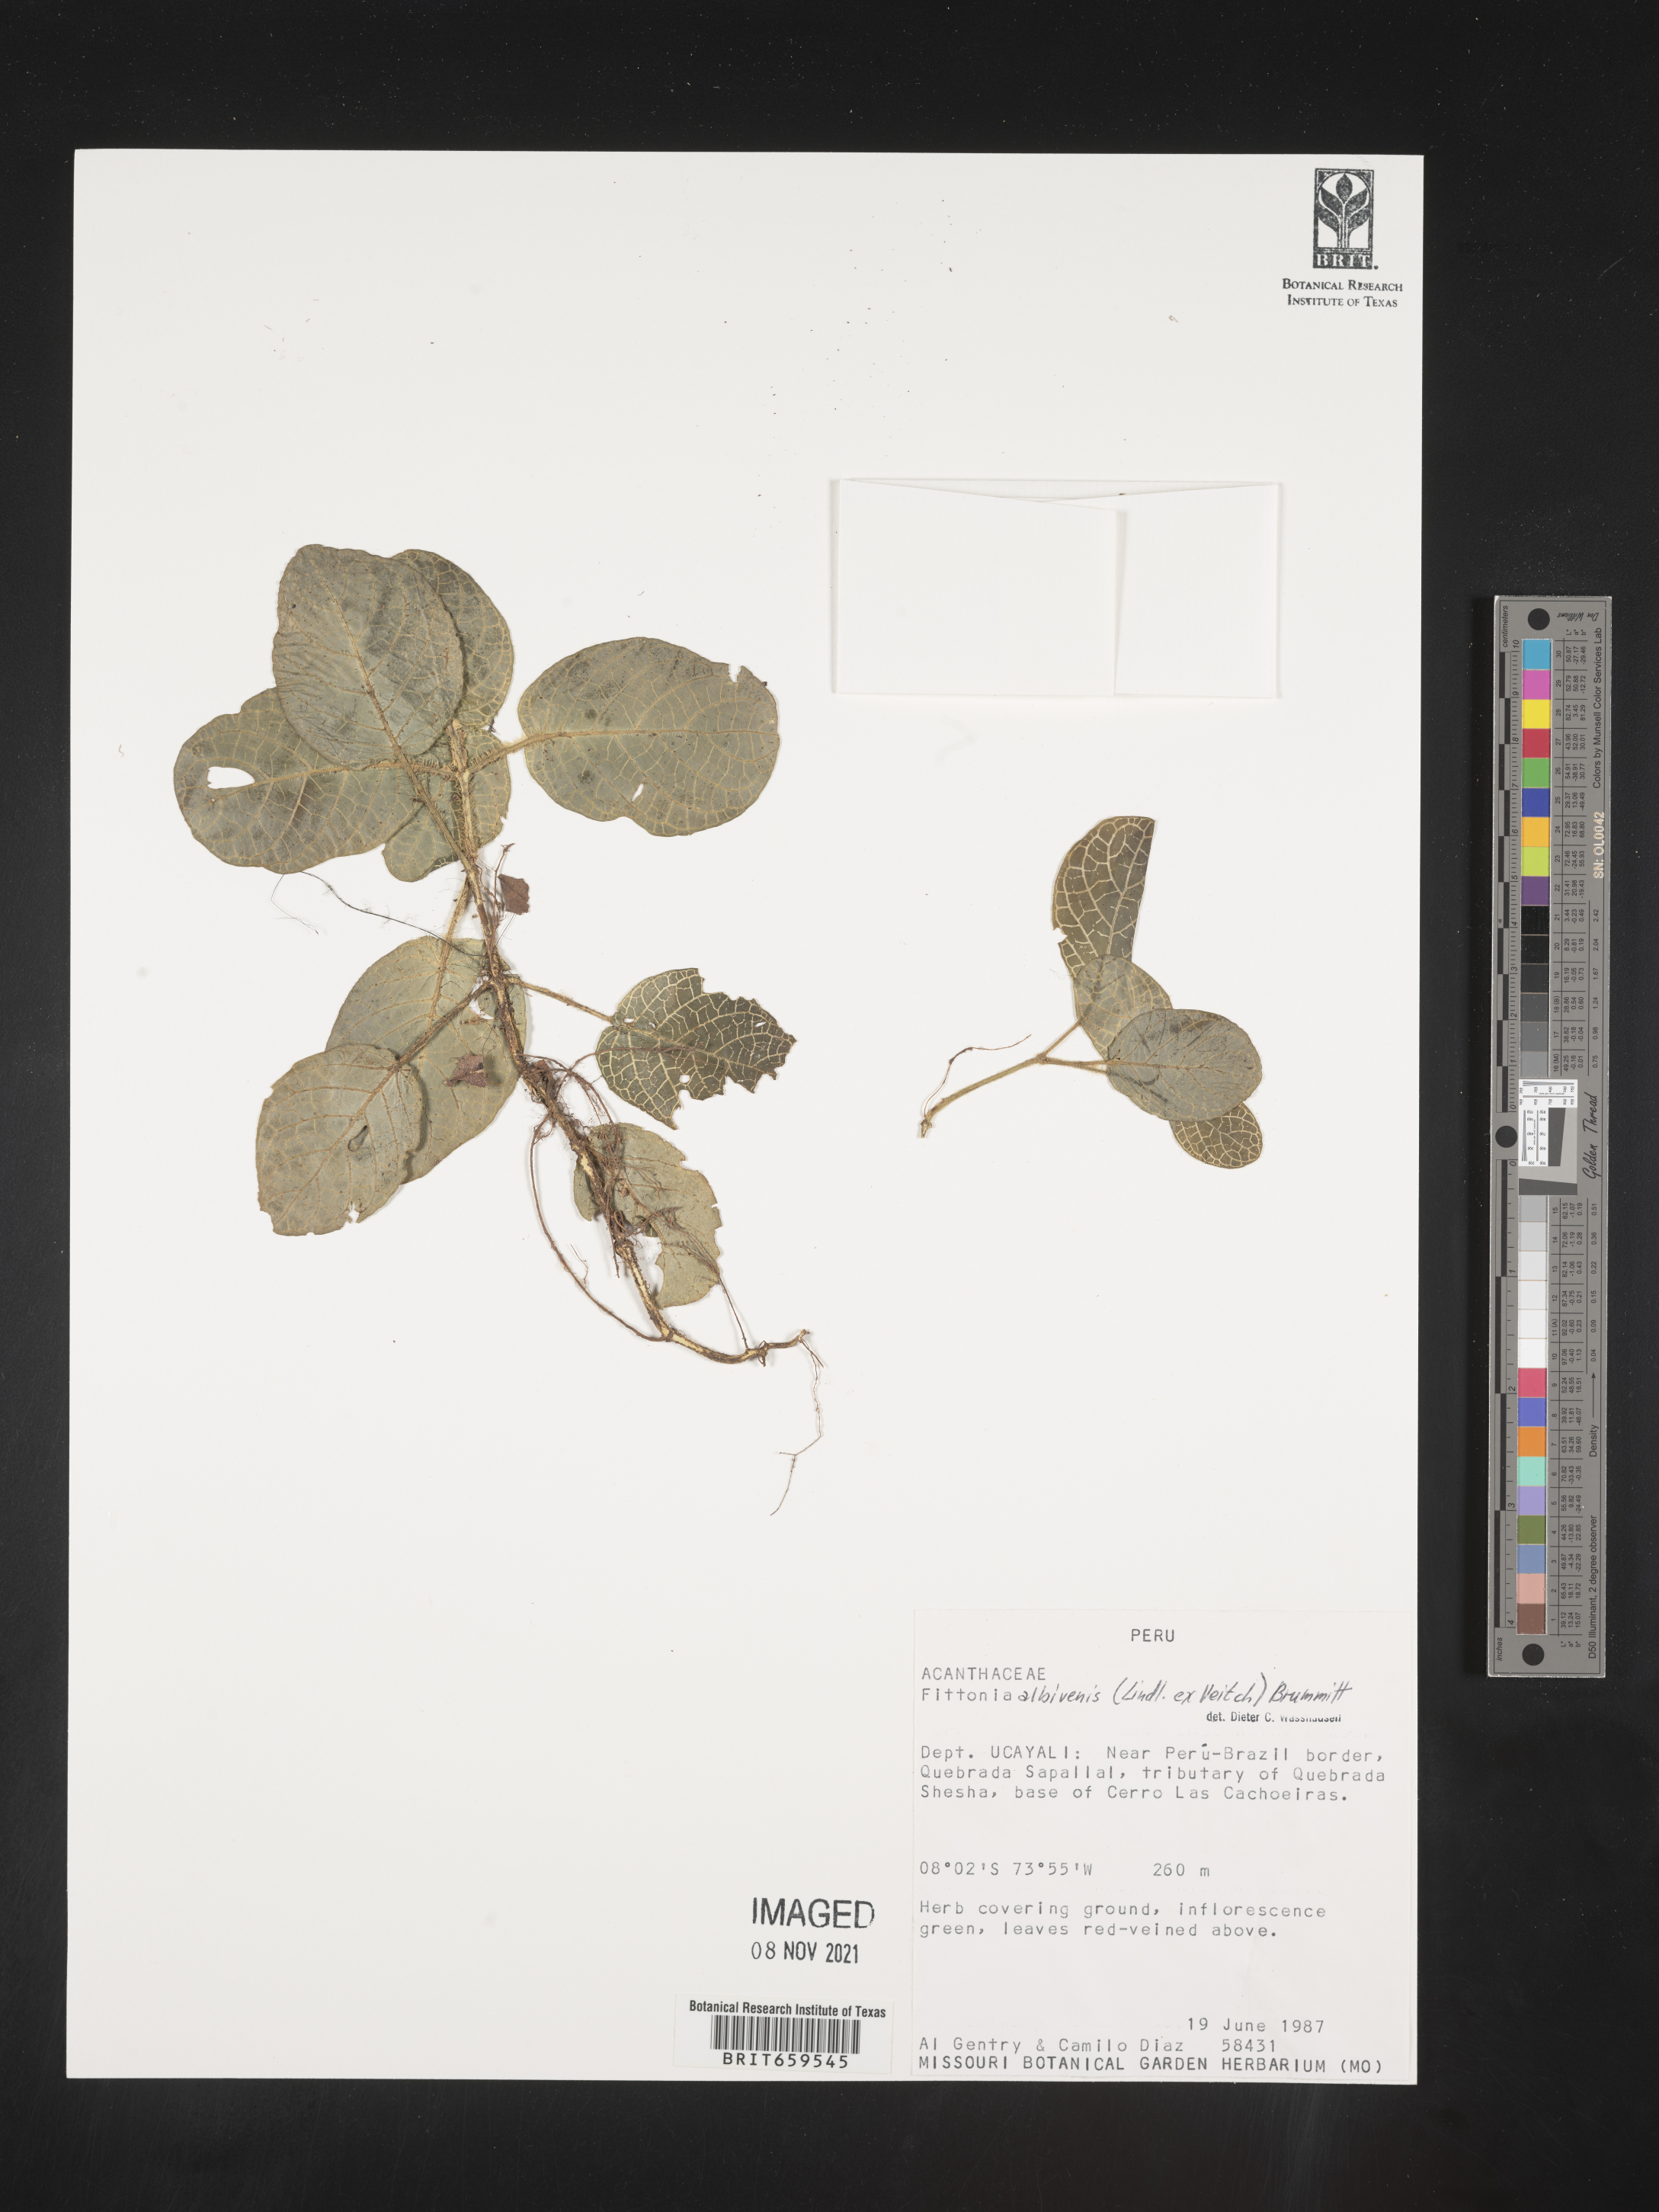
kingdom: Plantae
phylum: Tracheophyta
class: Magnoliopsida
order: Lamiales
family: Acanthaceae
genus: Fittonia
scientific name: Fittonia
